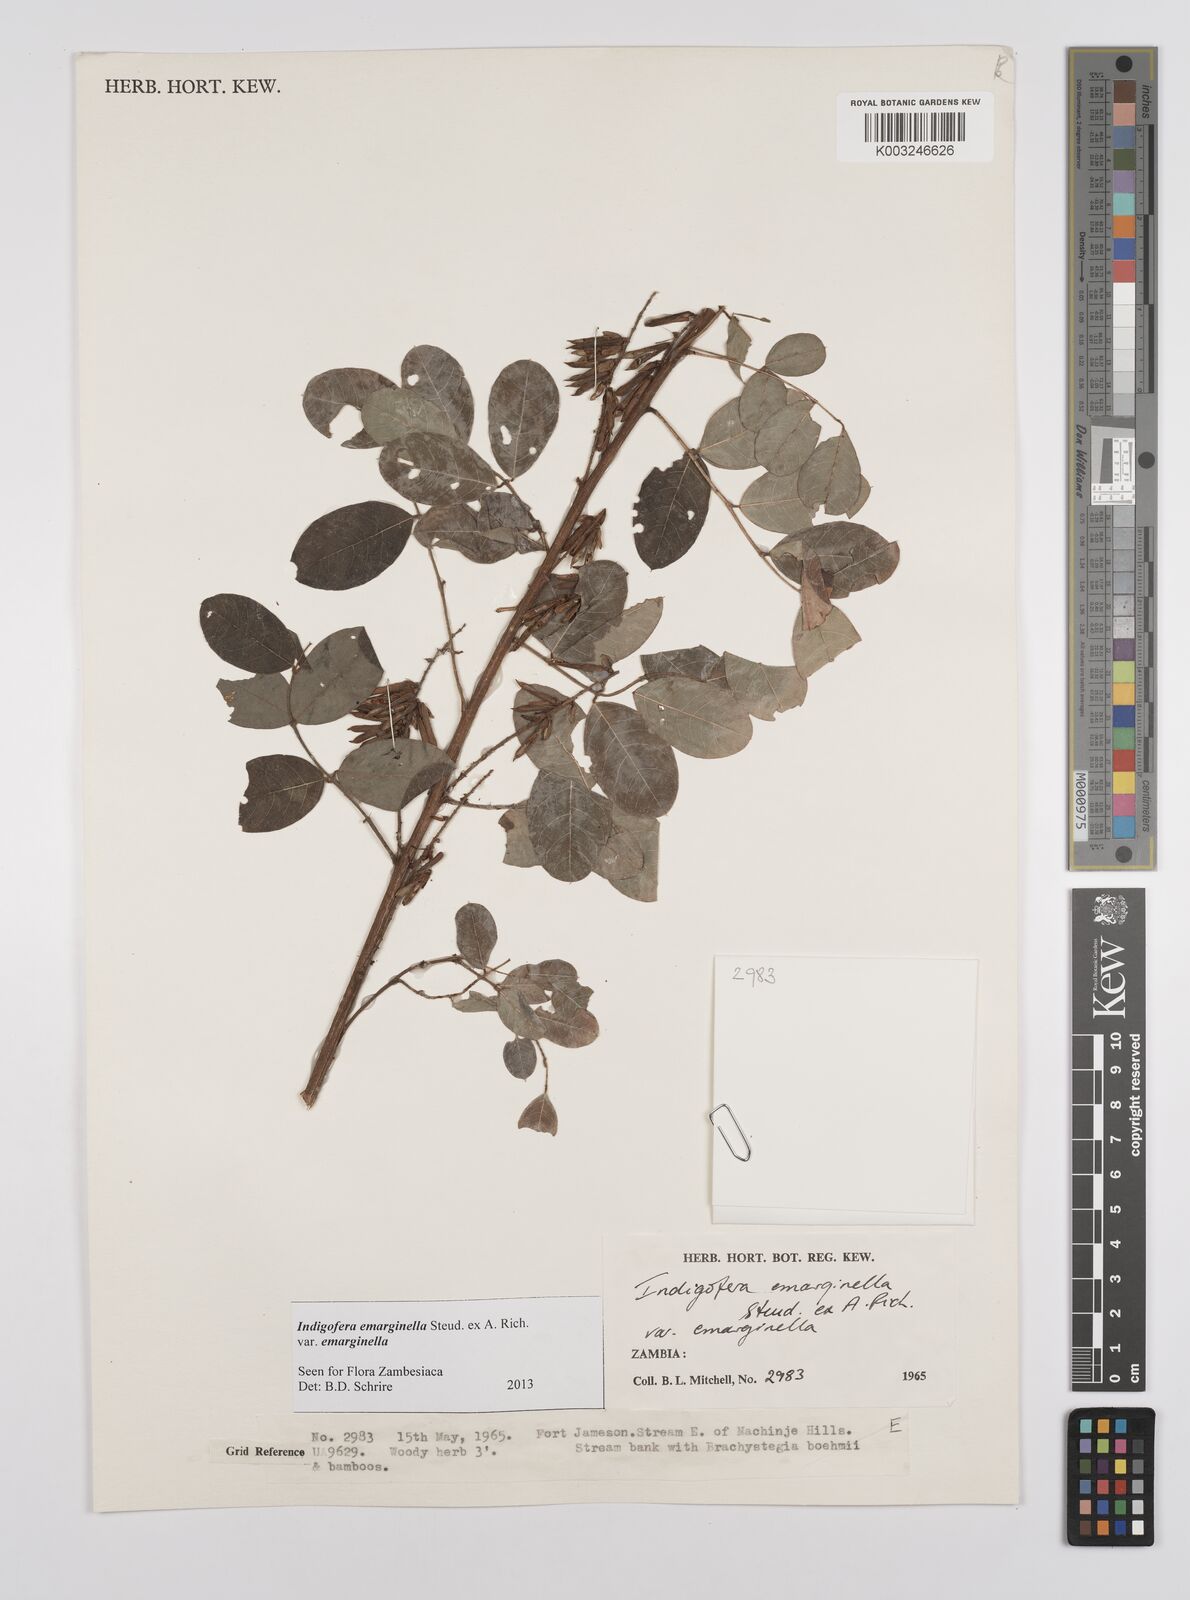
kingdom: Plantae
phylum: Tracheophyta
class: Magnoliopsida
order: Fabales
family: Fabaceae
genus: Indigofera
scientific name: Indigofera emarginella
